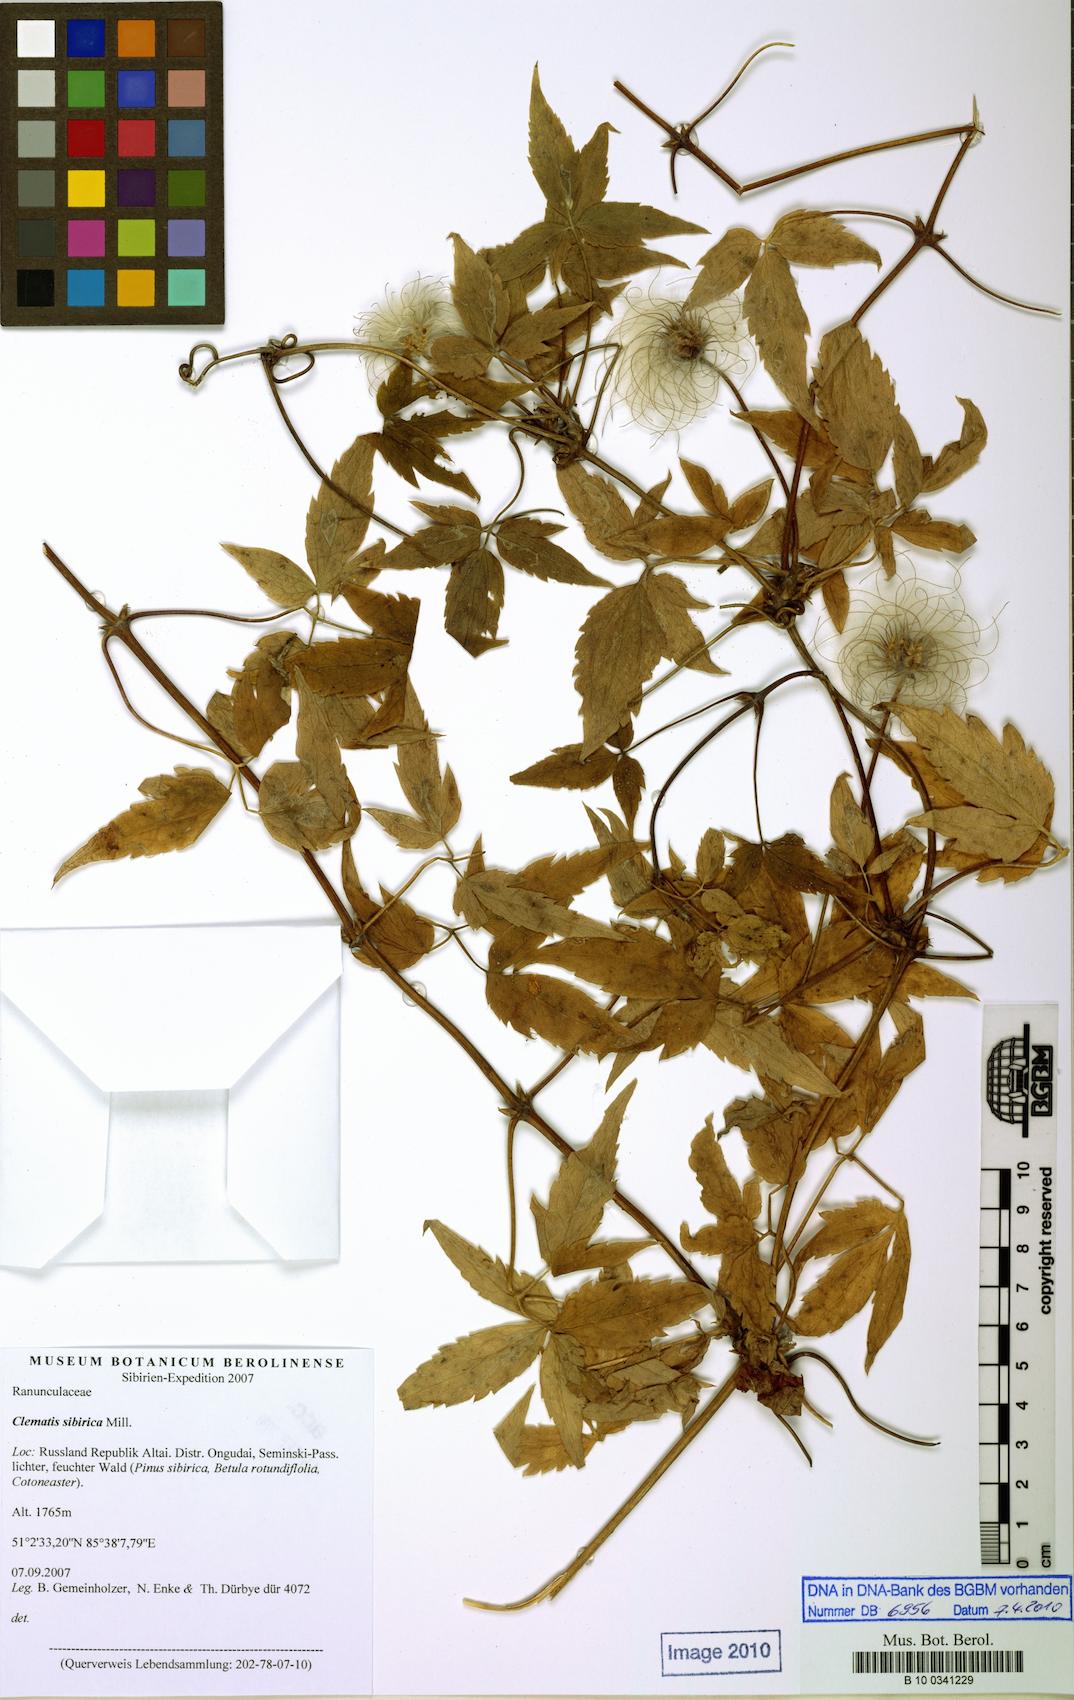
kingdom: Plantae
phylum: Tracheophyta
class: Magnoliopsida
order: Ranunculales
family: Ranunculaceae
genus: Clematis
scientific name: Clematis sibirica
